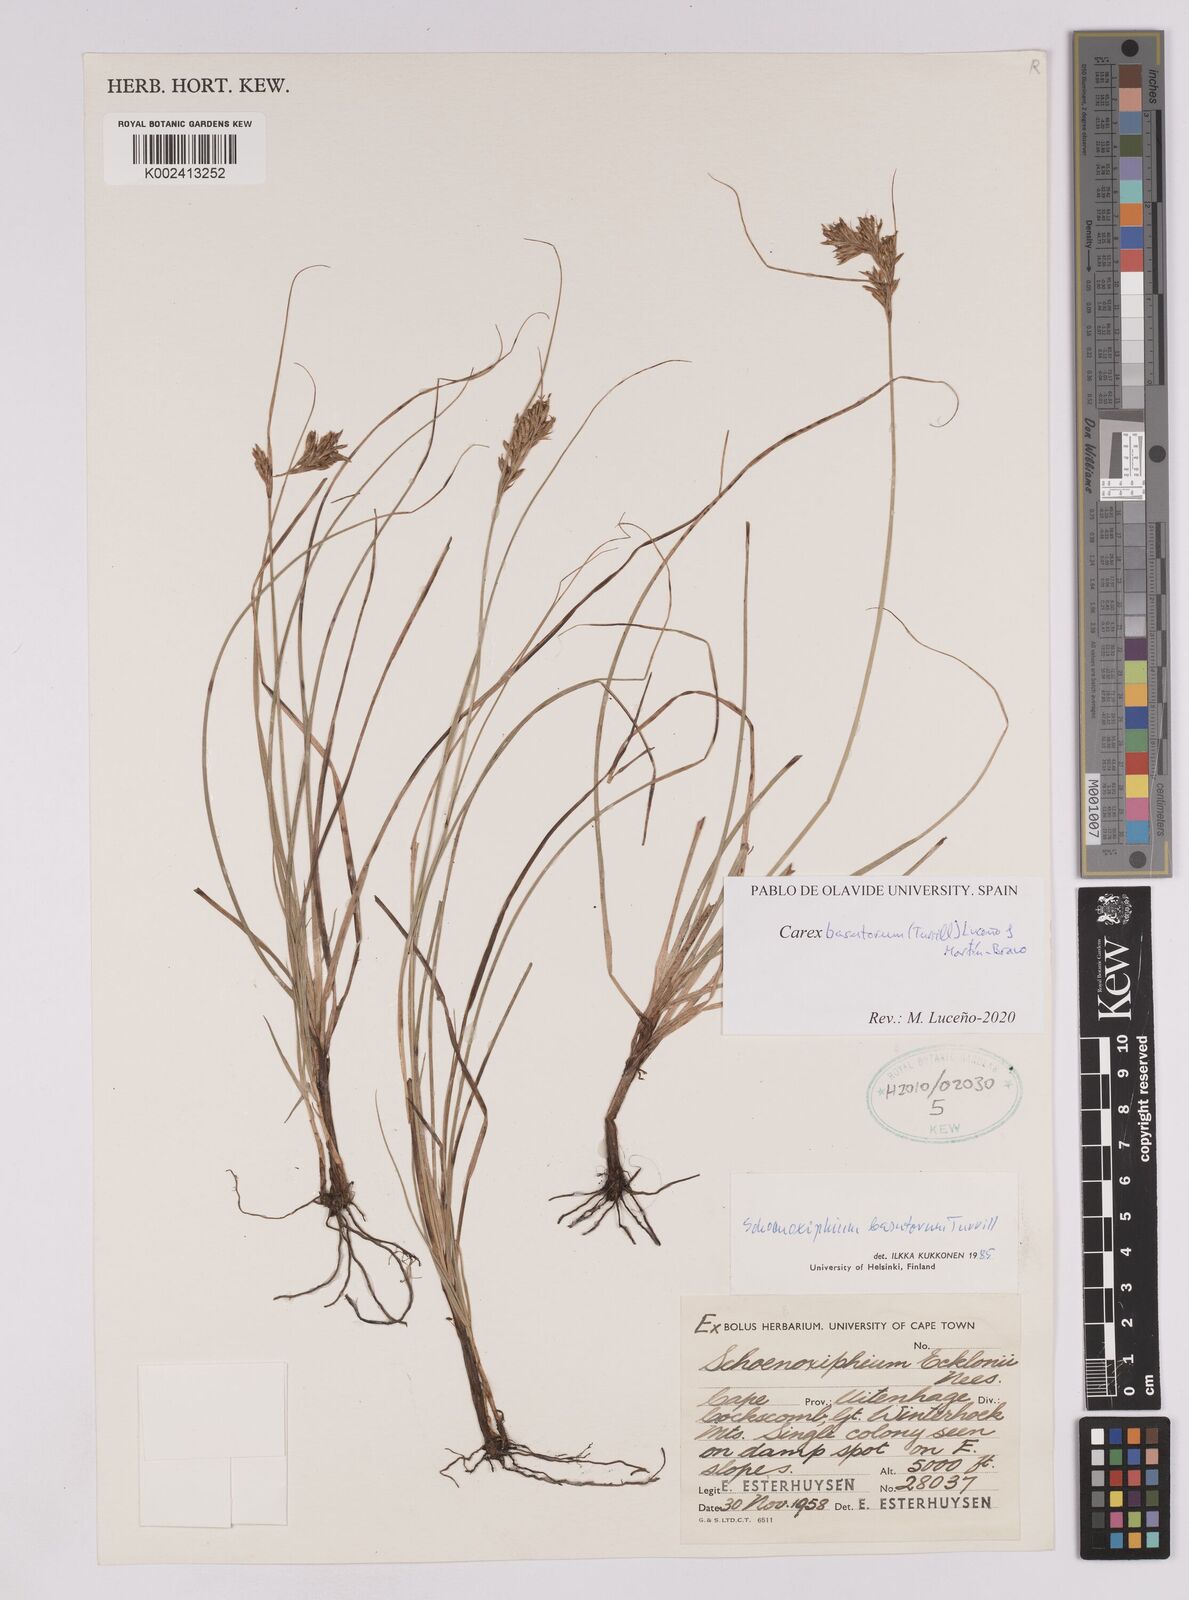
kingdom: Plantae
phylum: Tracheophyta
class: Liliopsida
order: Poales
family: Cyperaceae
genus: Carex
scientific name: Carex basutorum
